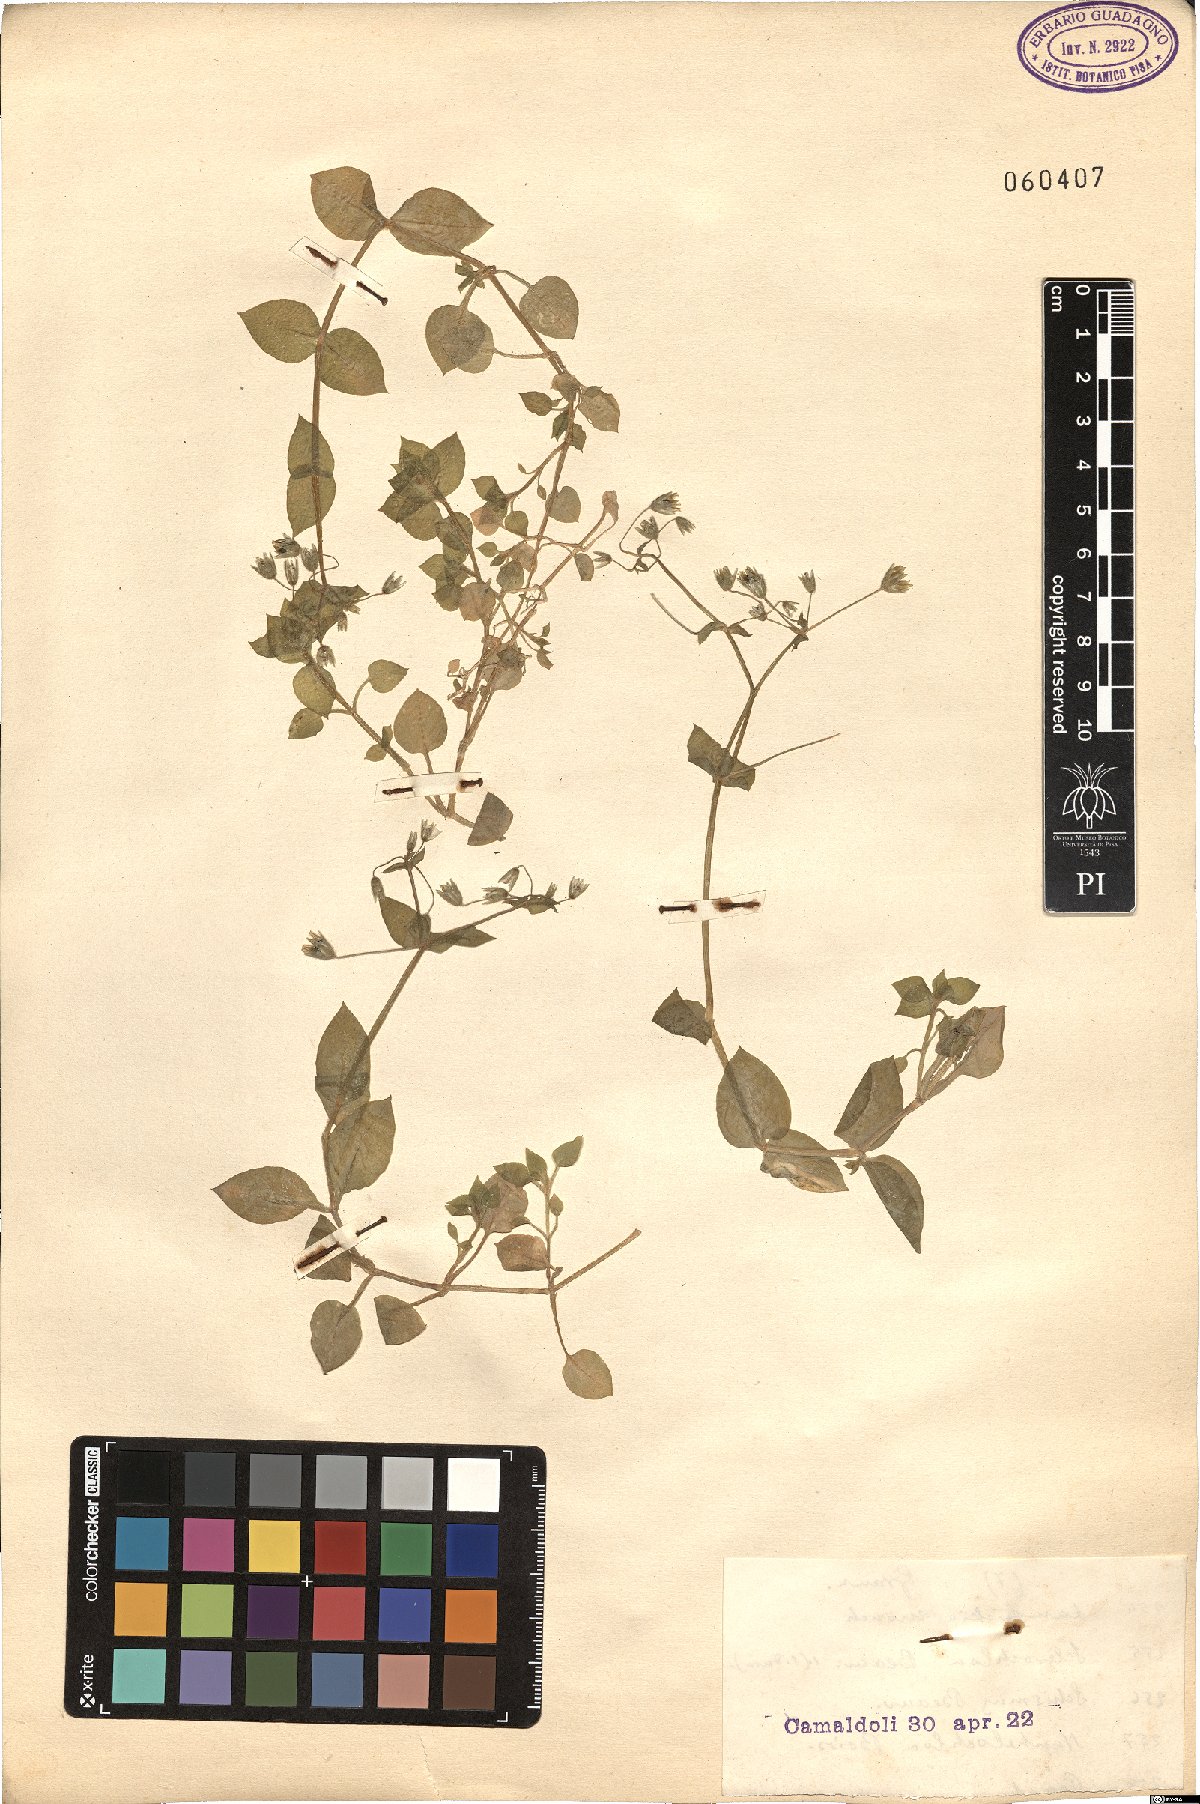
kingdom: Plantae
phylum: Tracheophyta
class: Magnoliopsida
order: Caryophyllales
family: Caryophyllaceae
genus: Stellaria
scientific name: Stellaria media
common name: Common chickweed
